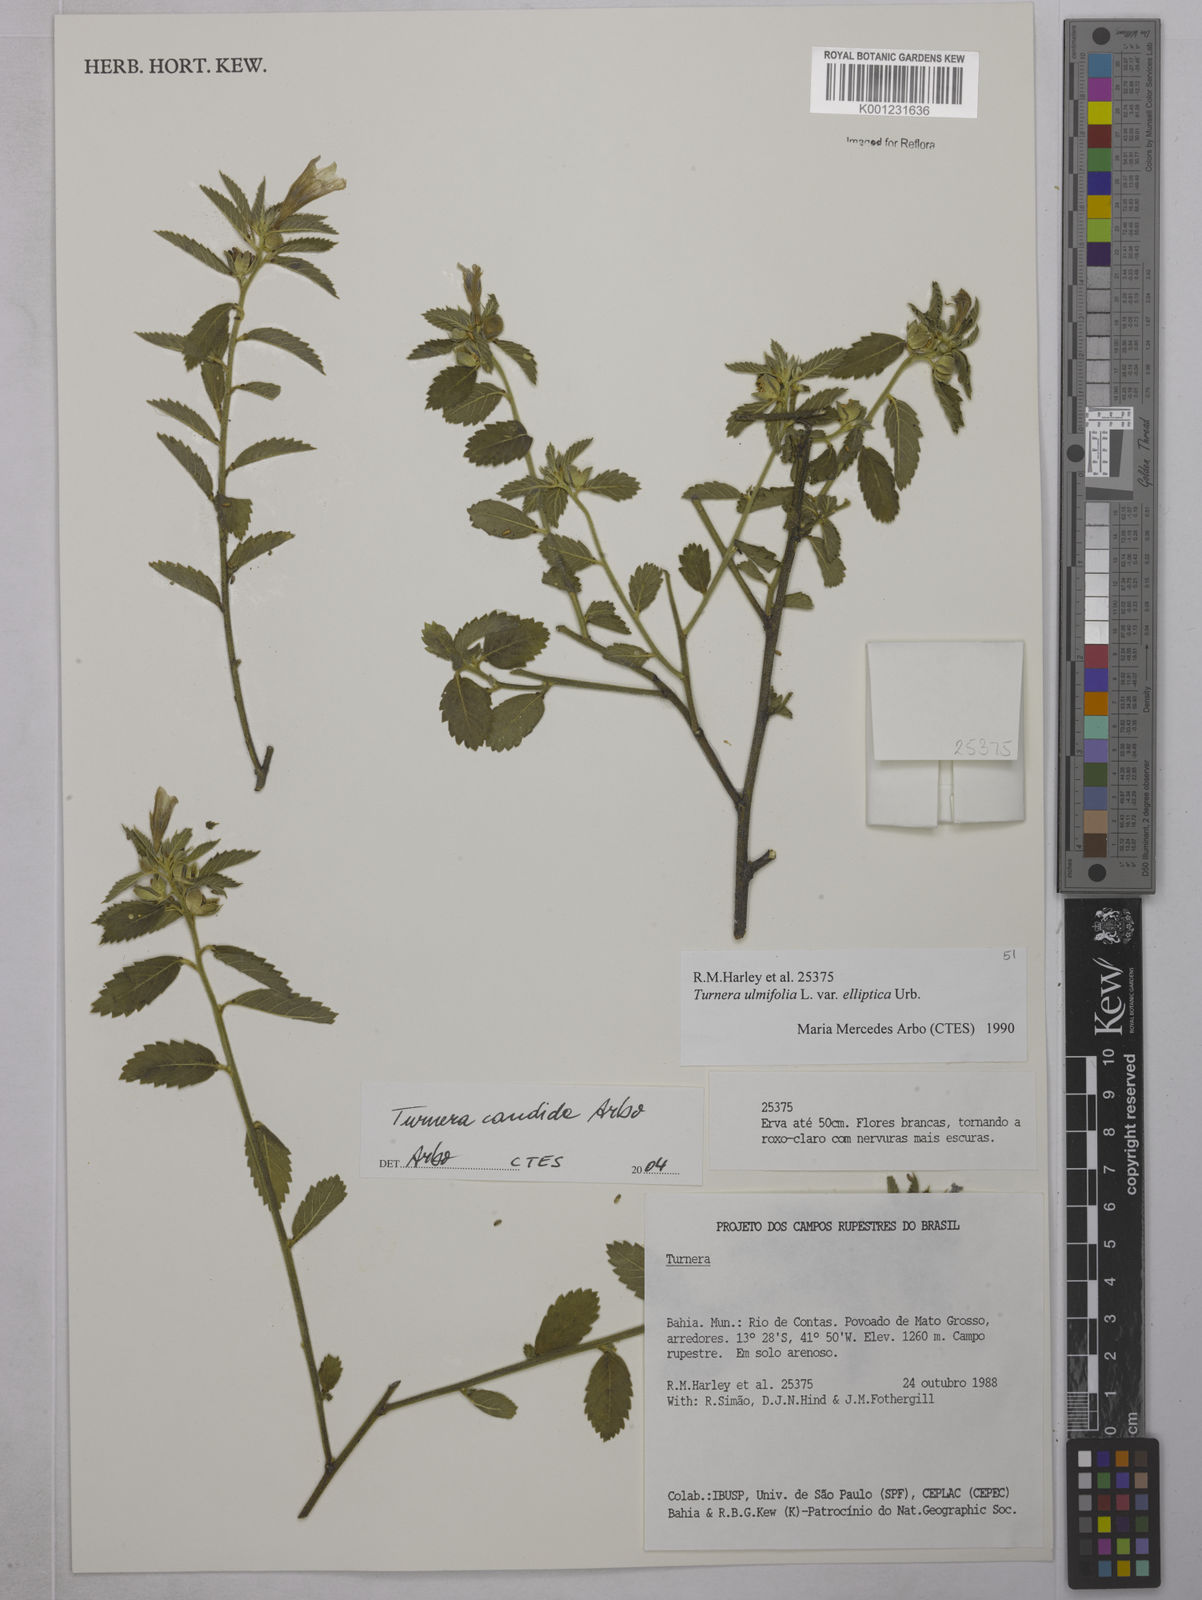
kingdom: Plantae
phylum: Tracheophyta
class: Magnoliopsida
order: Malpighiales
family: Turneraceae
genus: Turnera
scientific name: Turnera candida
